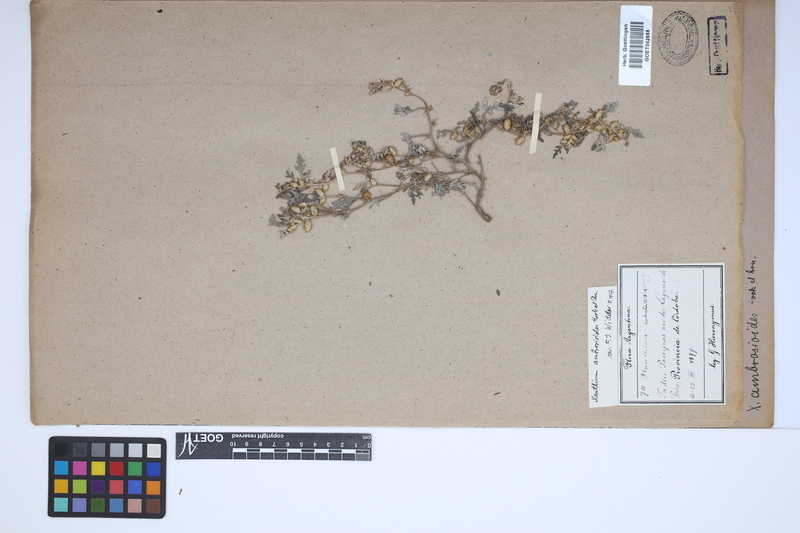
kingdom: Plantae
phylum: Tracheophyta
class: Magnoliopsida
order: Asterales
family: Asteraceae
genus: Xanthium
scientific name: Xanthium ambrosioides
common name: Argentine cocklebur
